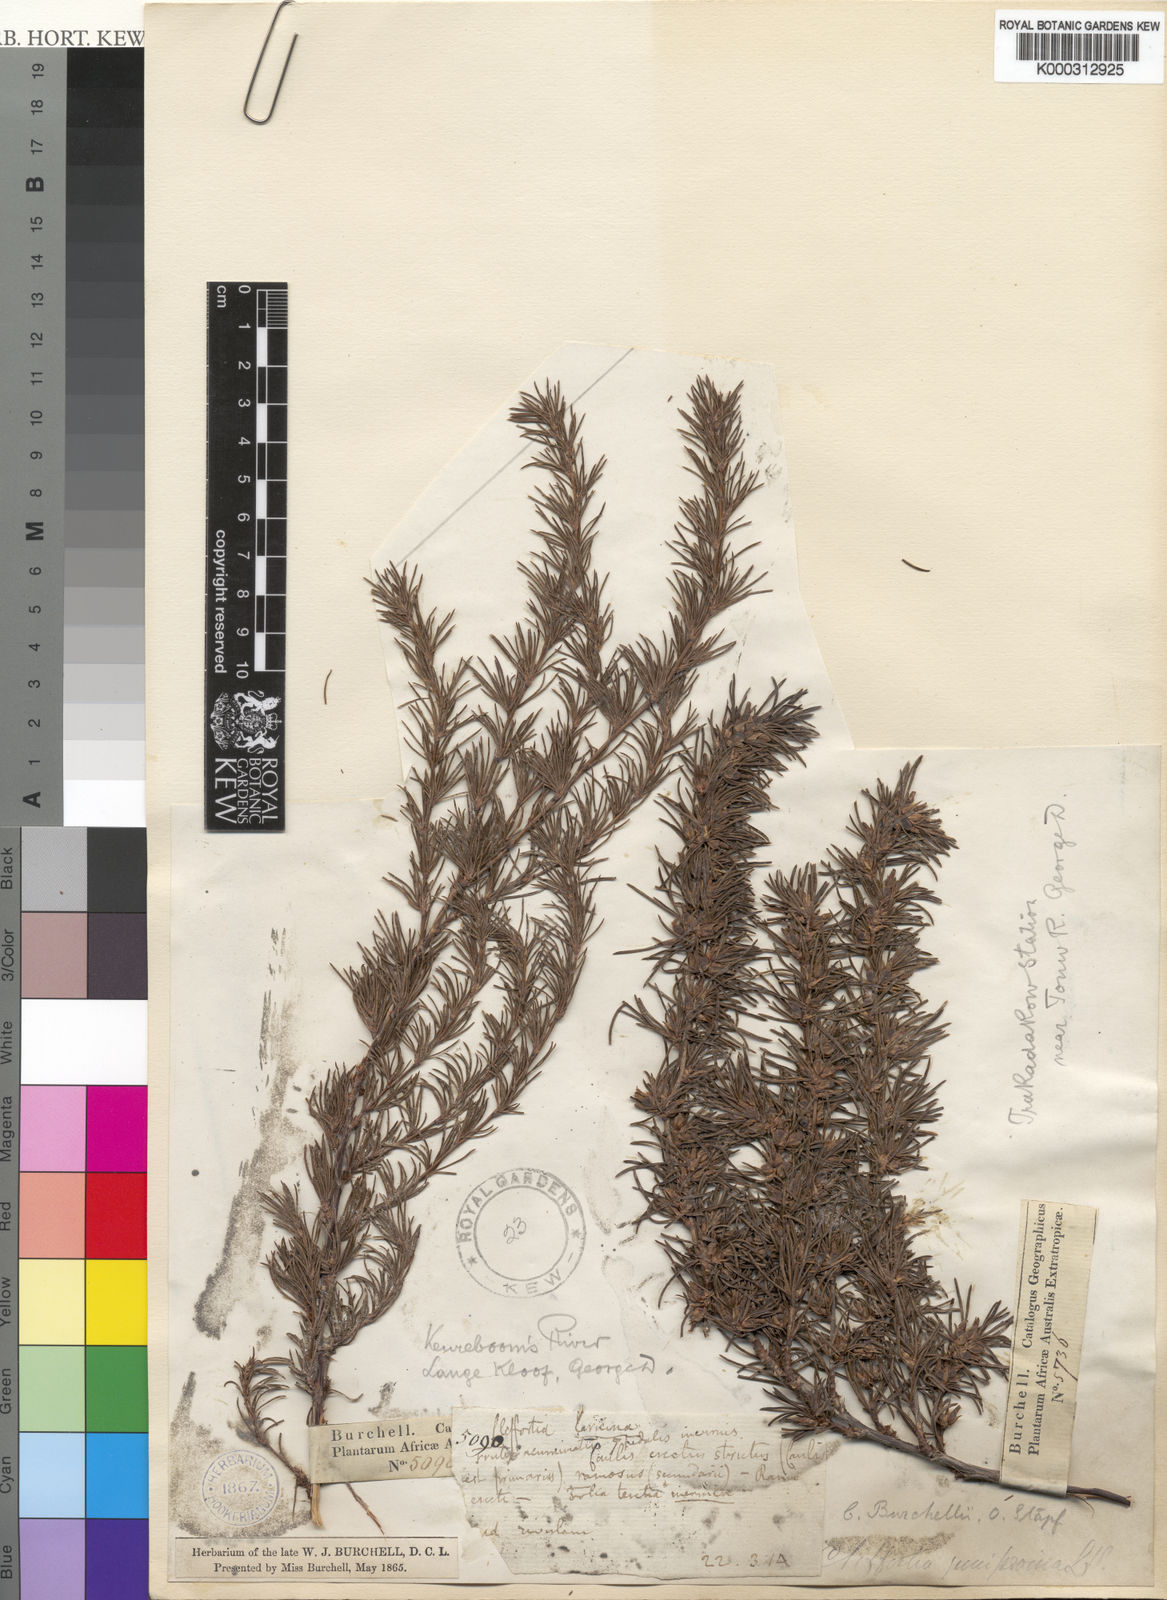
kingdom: Plantae
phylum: Tracheophyta
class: Magnoliopsida
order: Rosales
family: Rosaceae
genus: Cliffortia
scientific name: Cliffortia burchellii
